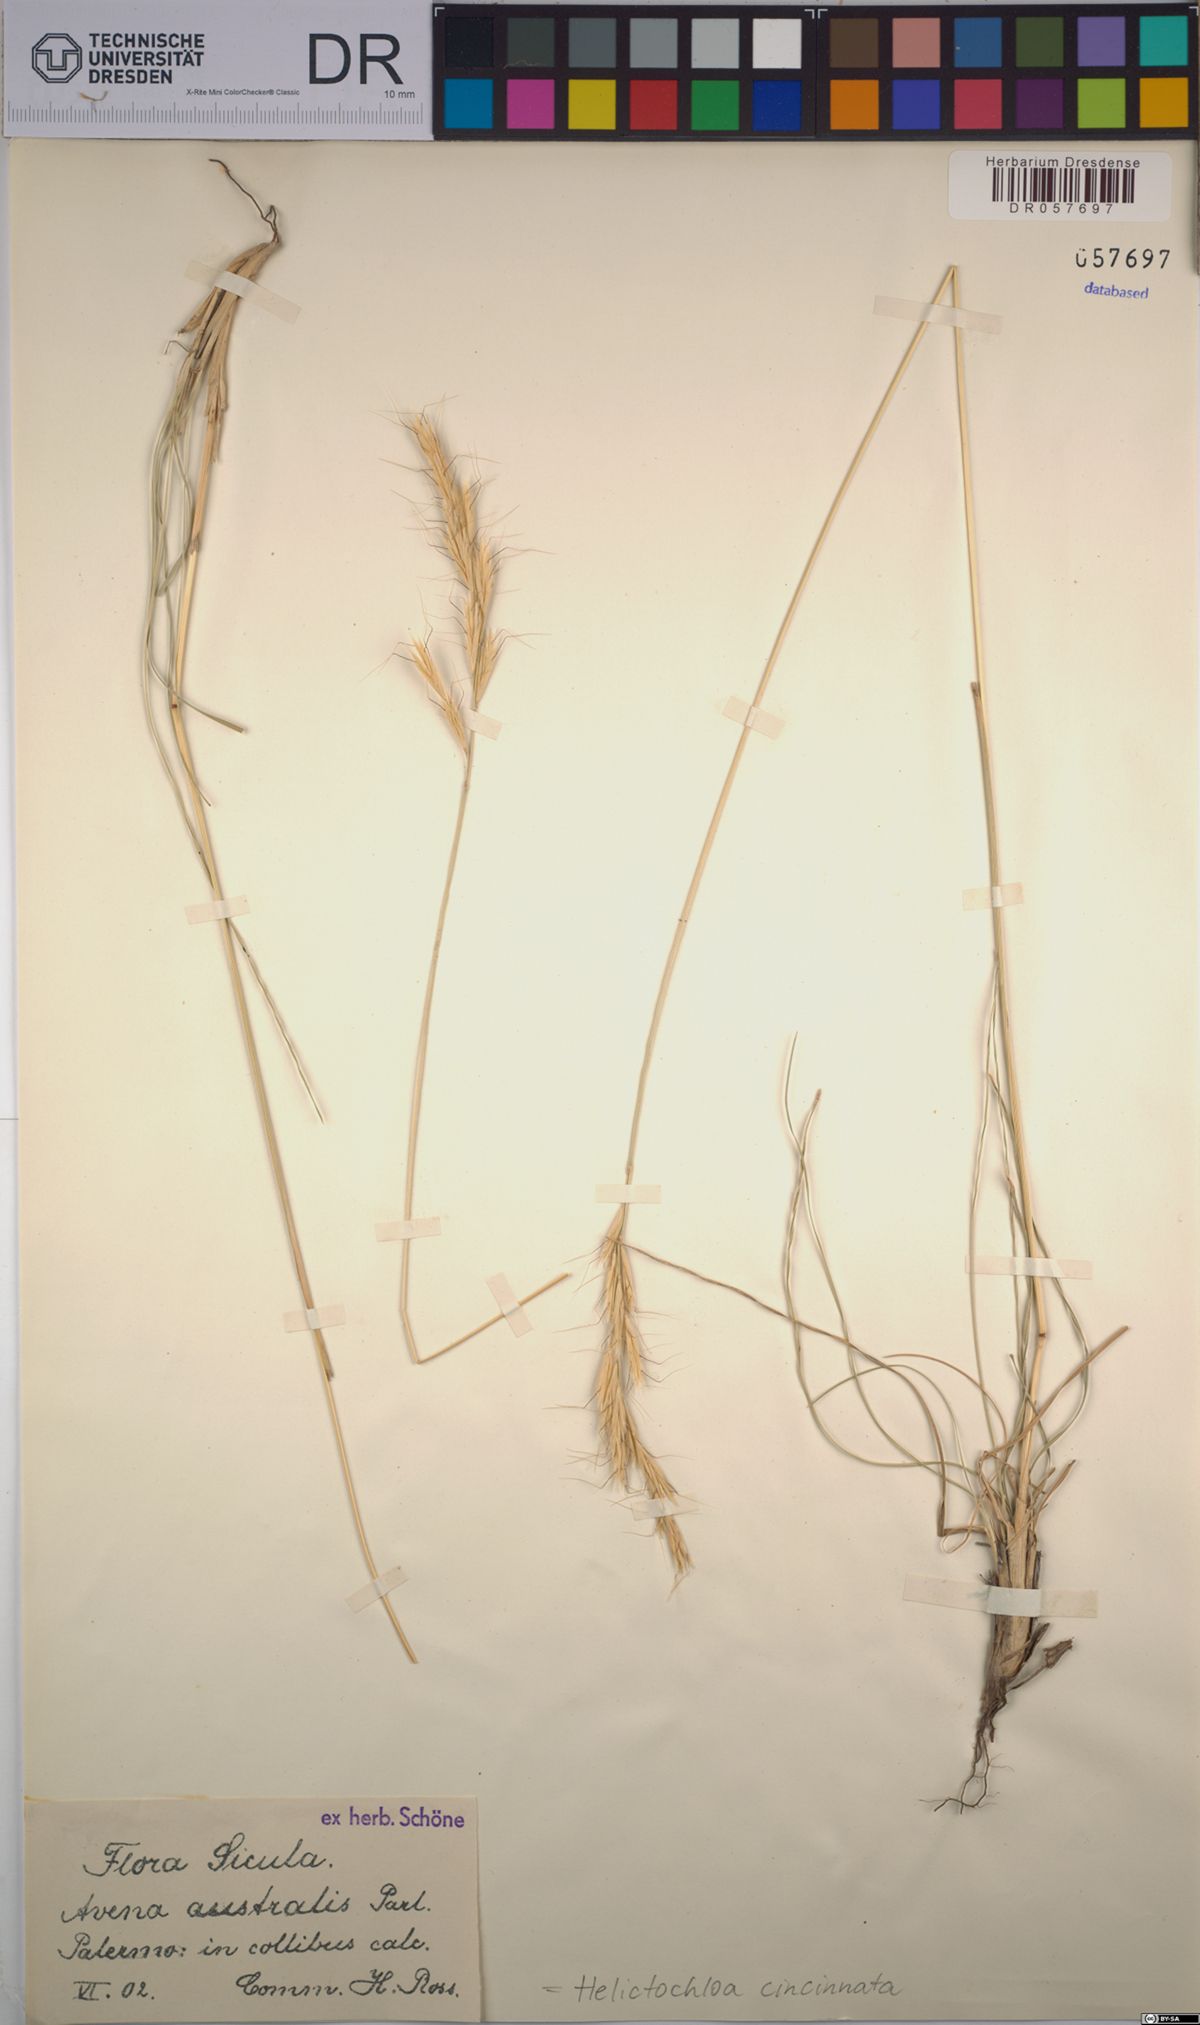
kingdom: Plantae
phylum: Tracheophyta
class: Liliopsida
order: Poales
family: Poaceae
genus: Helictochloa
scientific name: Helictochloa cincinnata
